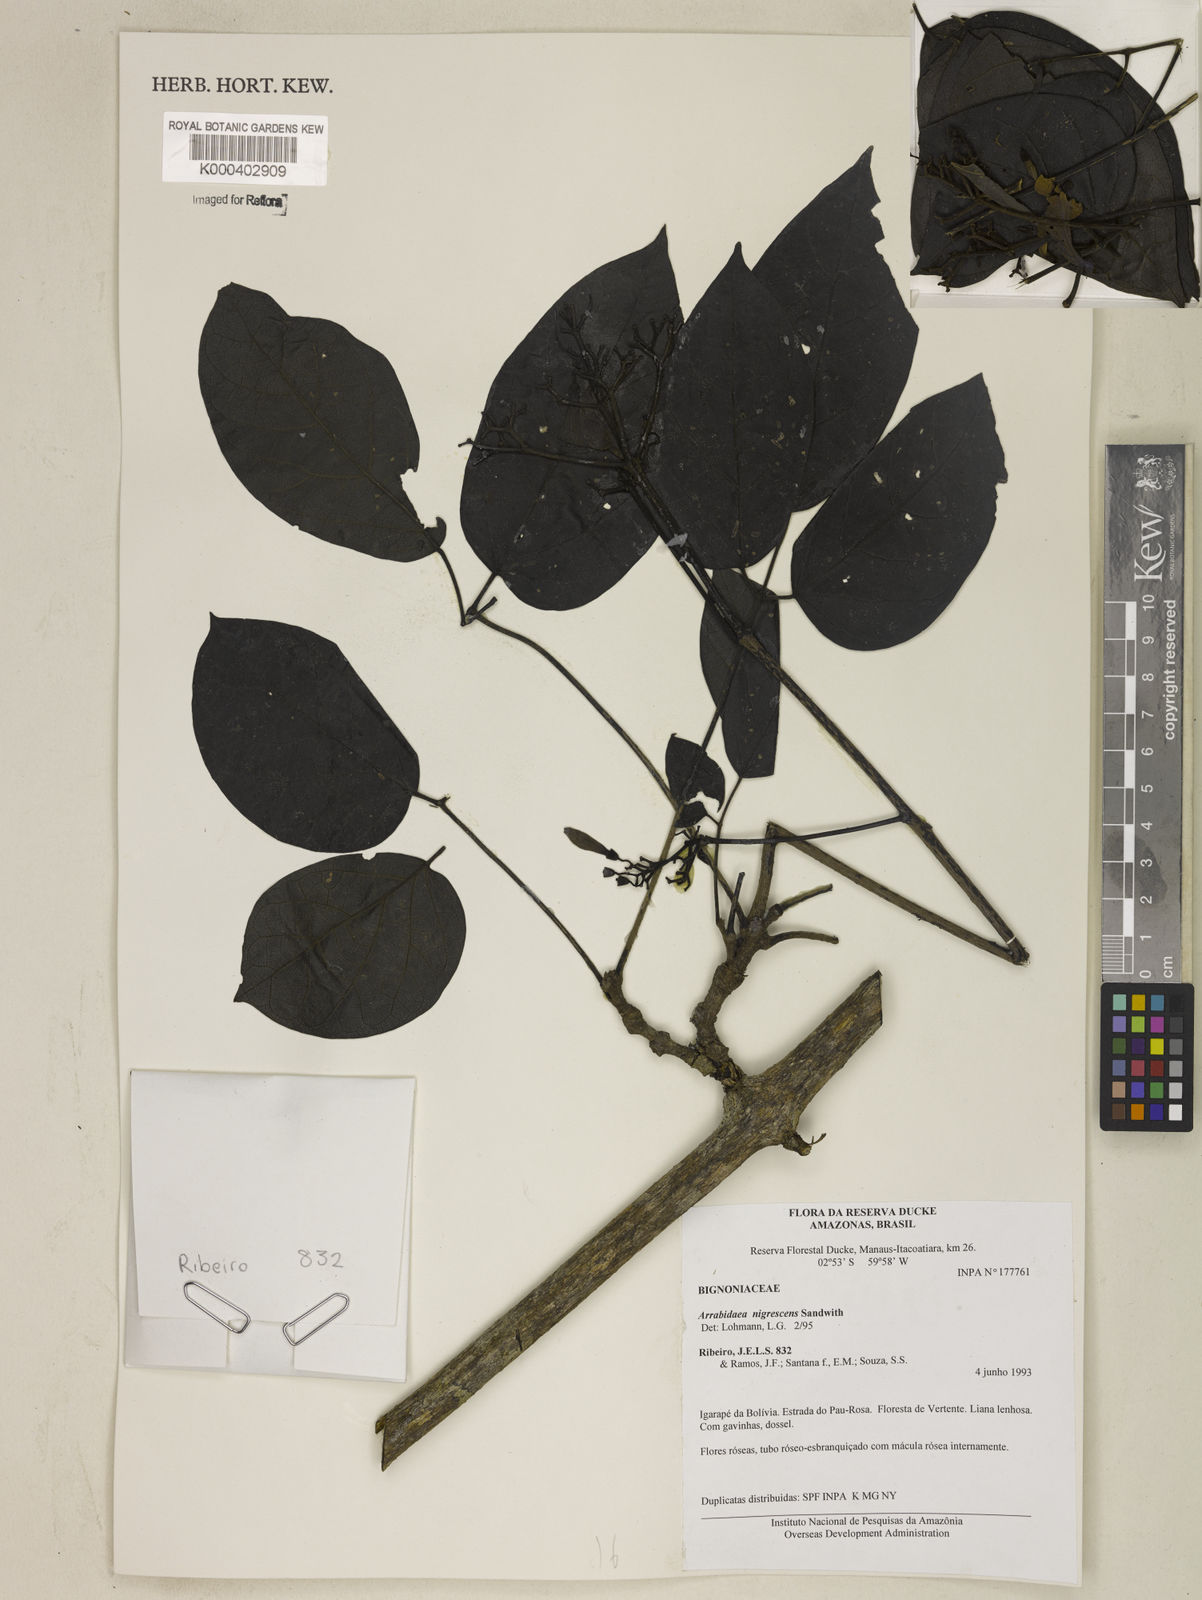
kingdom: Plantae
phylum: Tracheophyta
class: Magnoliopsida
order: Lamiales
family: Bignoniaceae
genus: Fridericia
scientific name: Fridericia nigrescens
